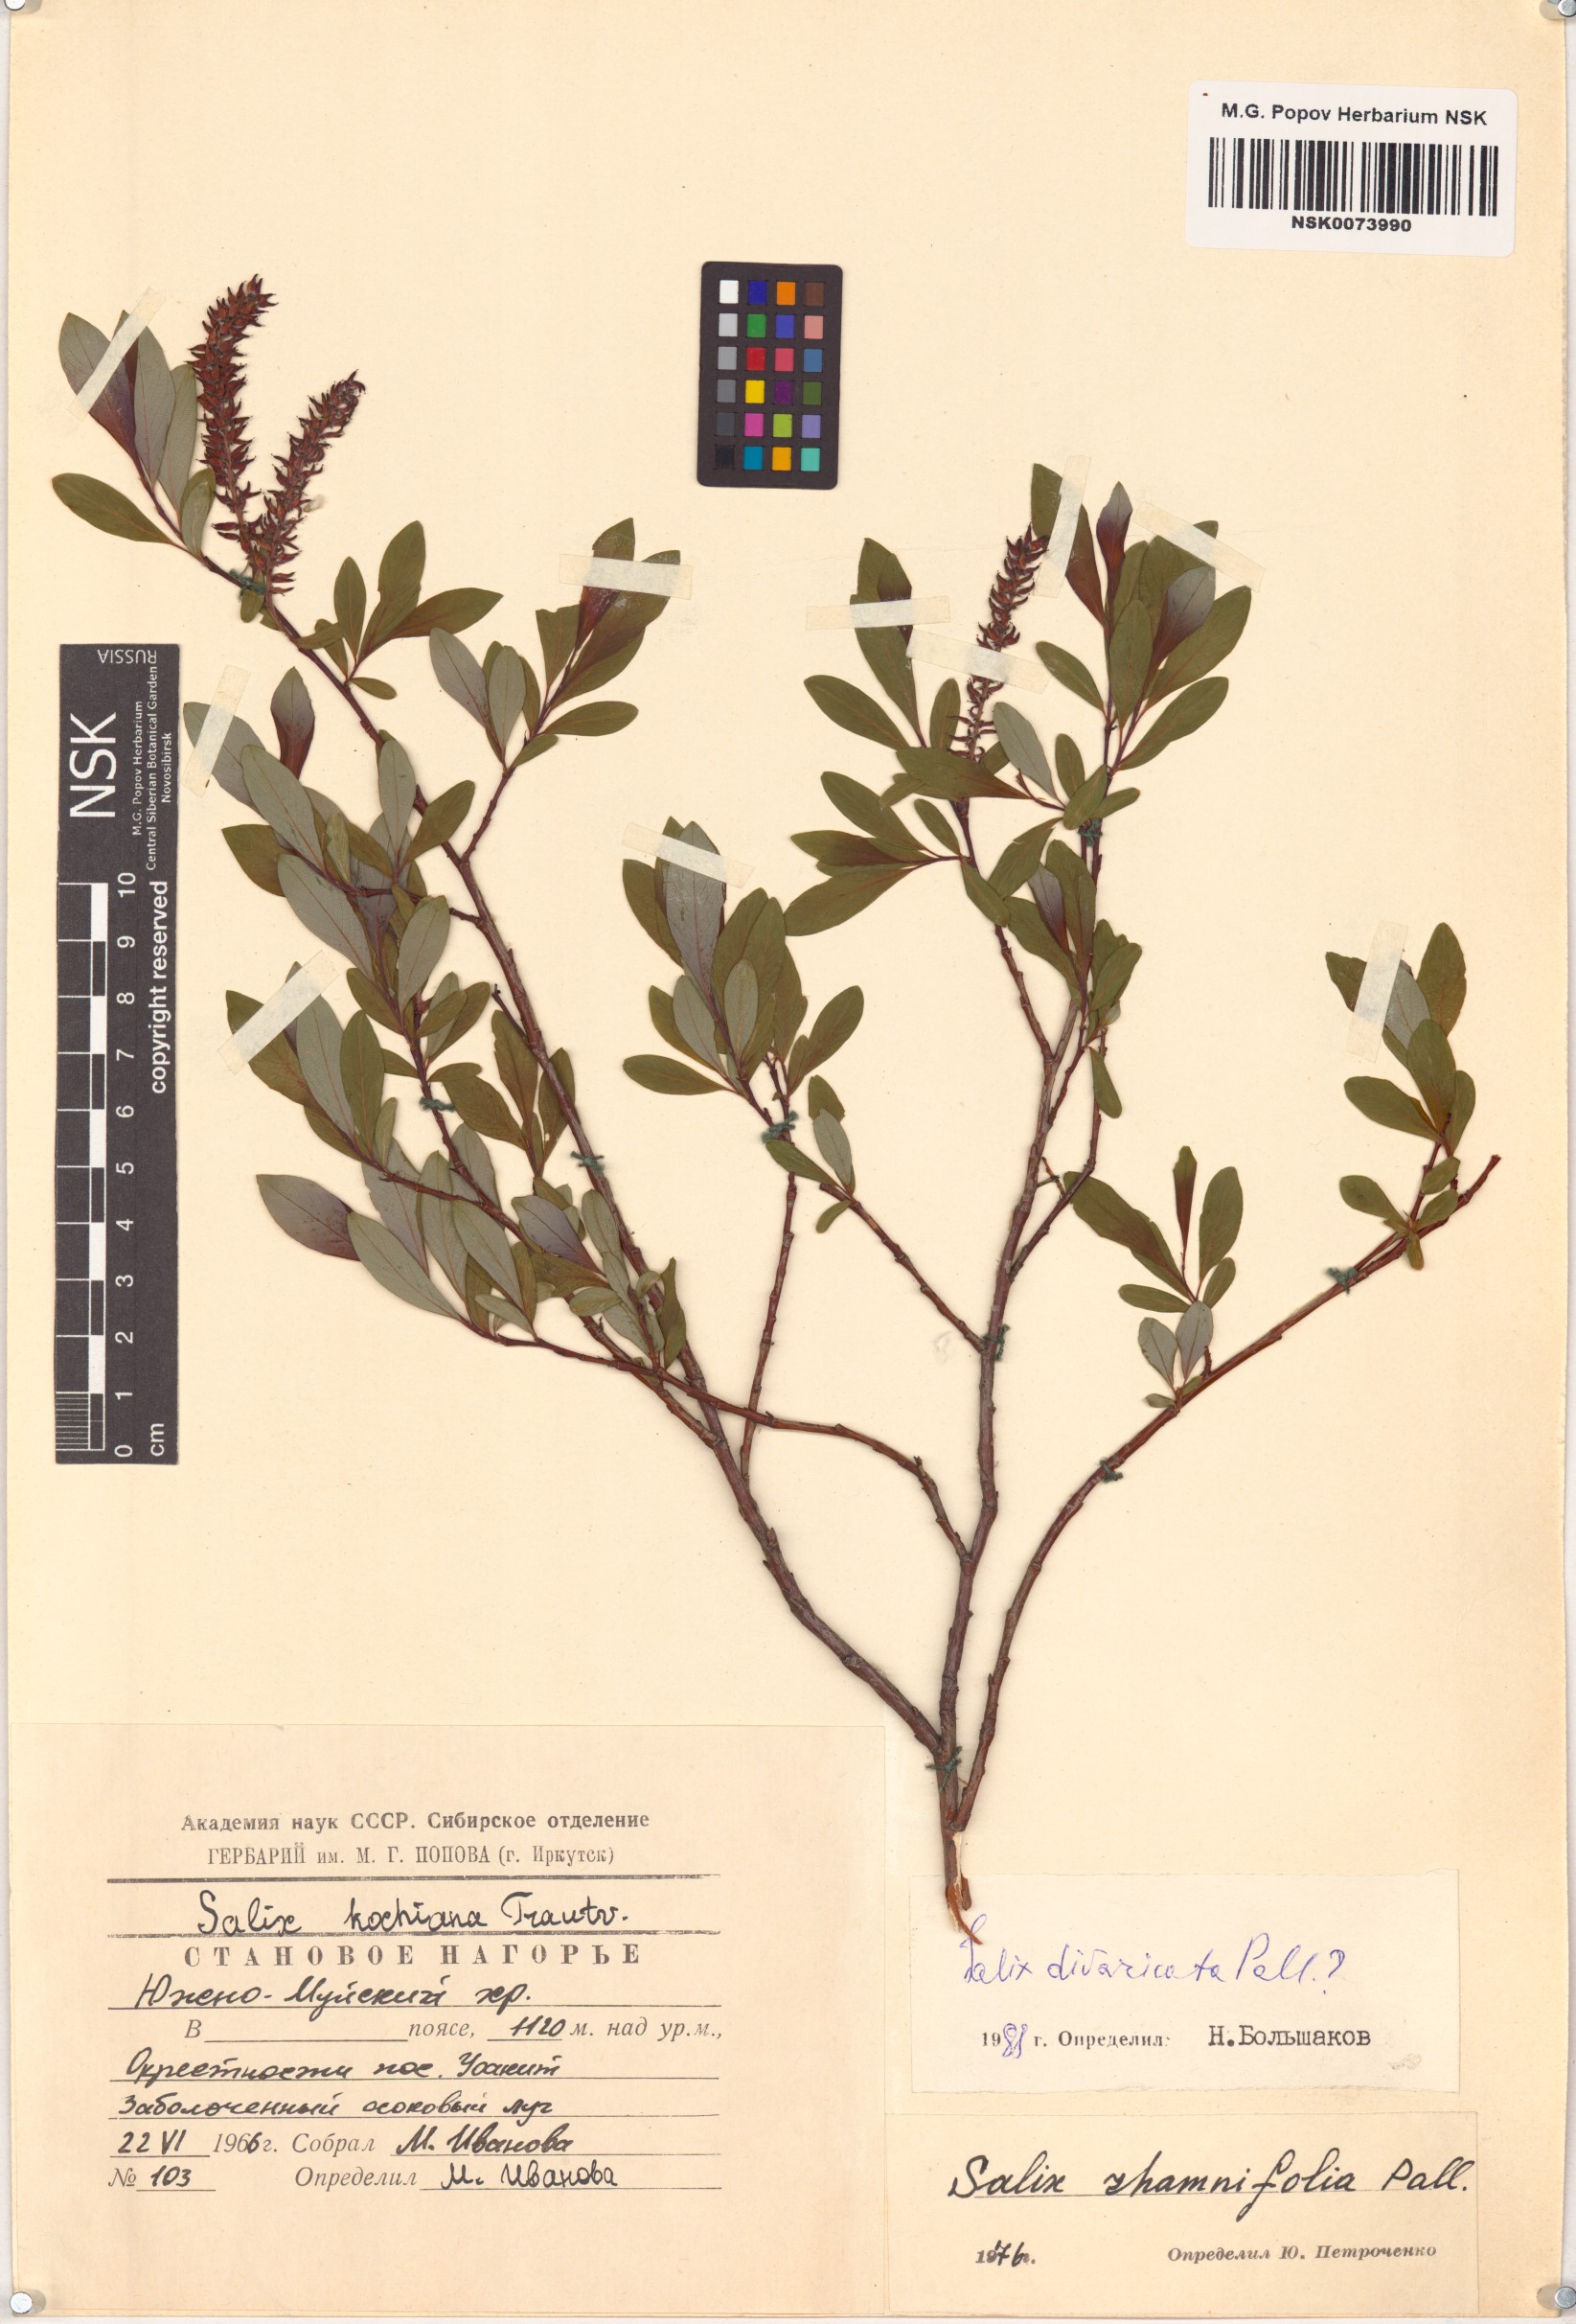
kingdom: Plantae
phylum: Tracheophyta
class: Magnoliopsida
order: Malpighiales
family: Salicaceae
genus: Salix
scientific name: Salix divaricata
